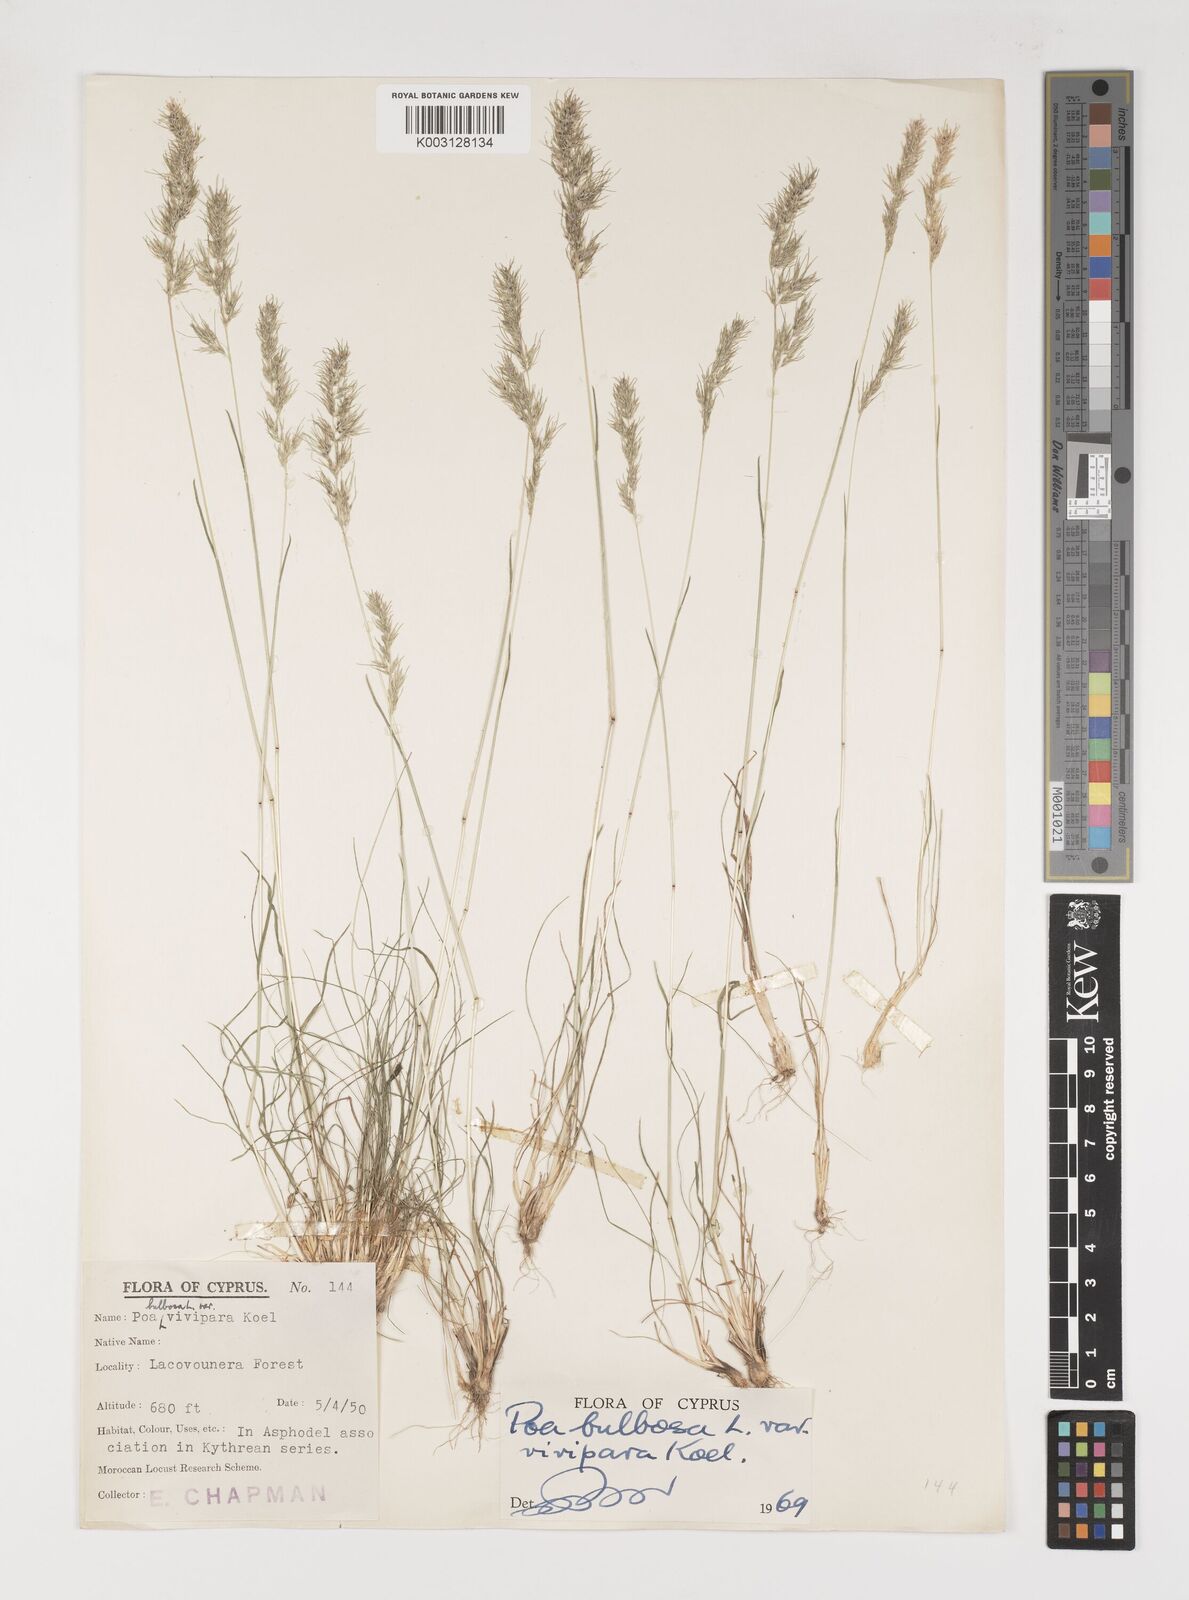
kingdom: Plantae
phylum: Tracheophyta
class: Liliopsida
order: Poales
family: Poaceae
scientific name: Poaceae
